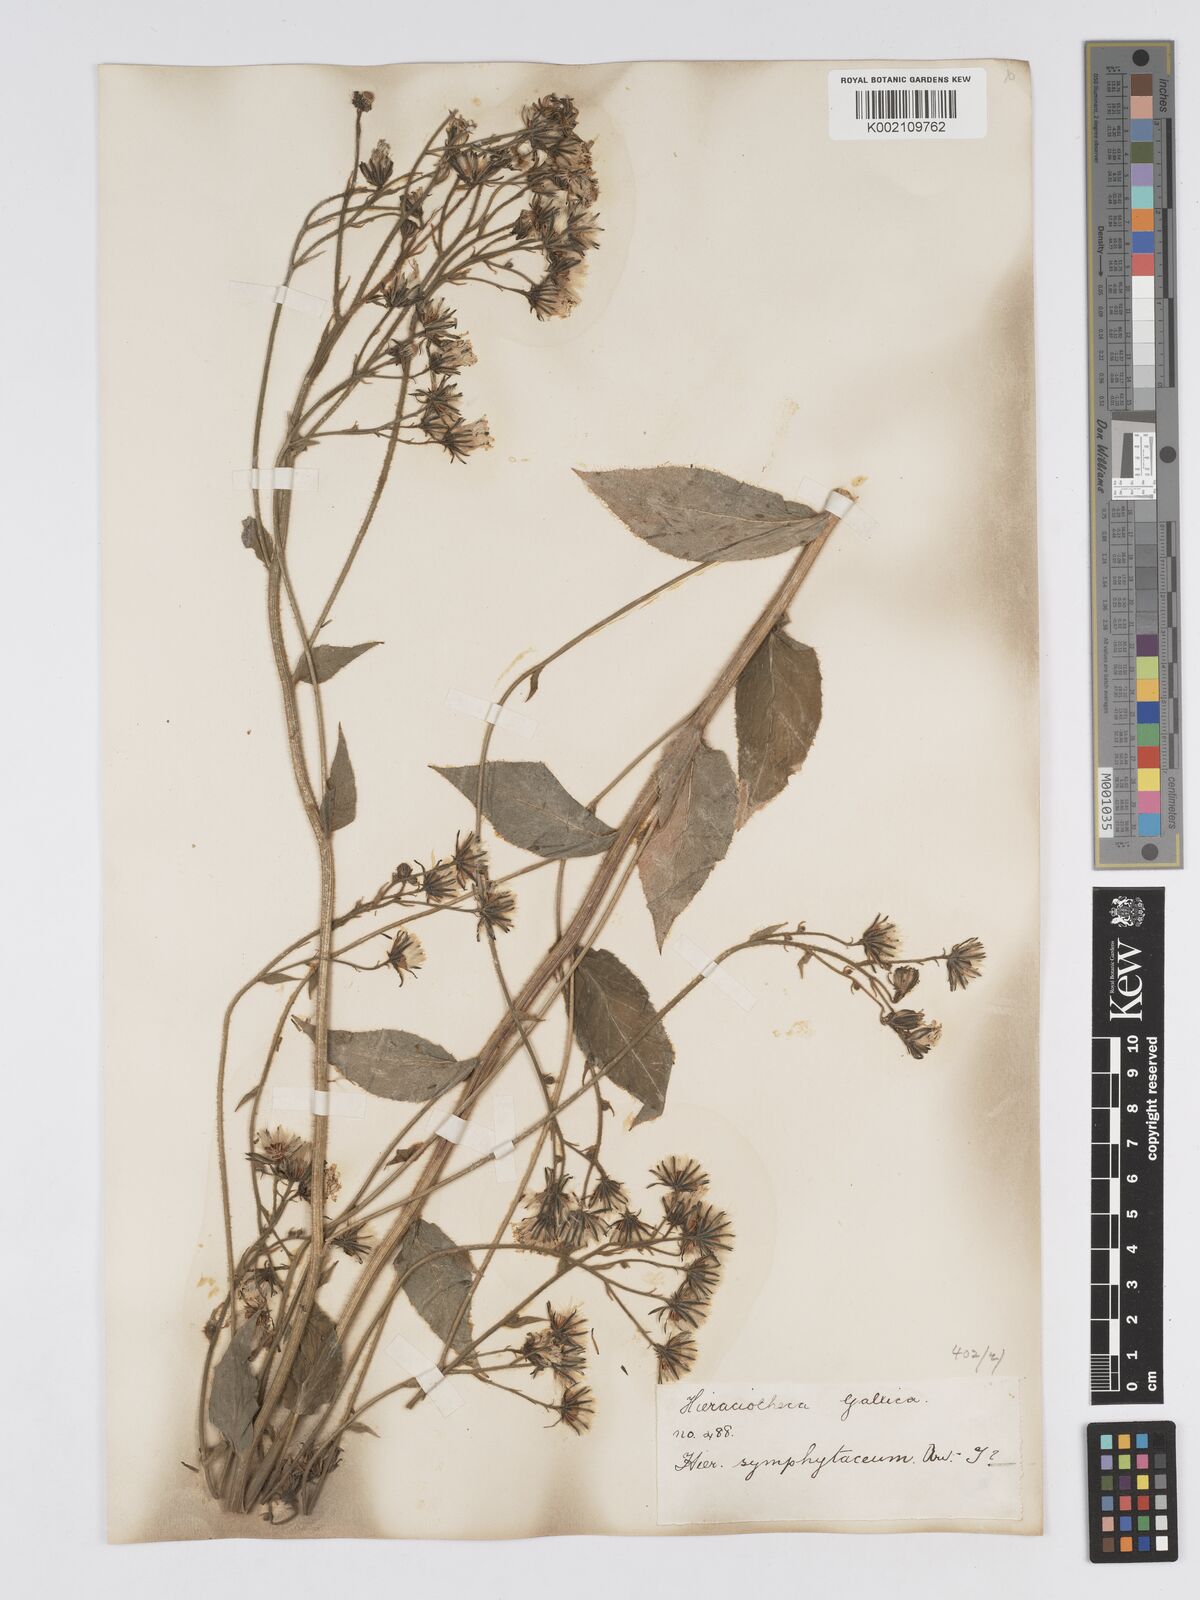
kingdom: Plantae
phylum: Tracheophyta
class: Magnoliopsida
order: Asterales
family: Asteraceae
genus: Hieracium
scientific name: Hieracium symphytaceum
